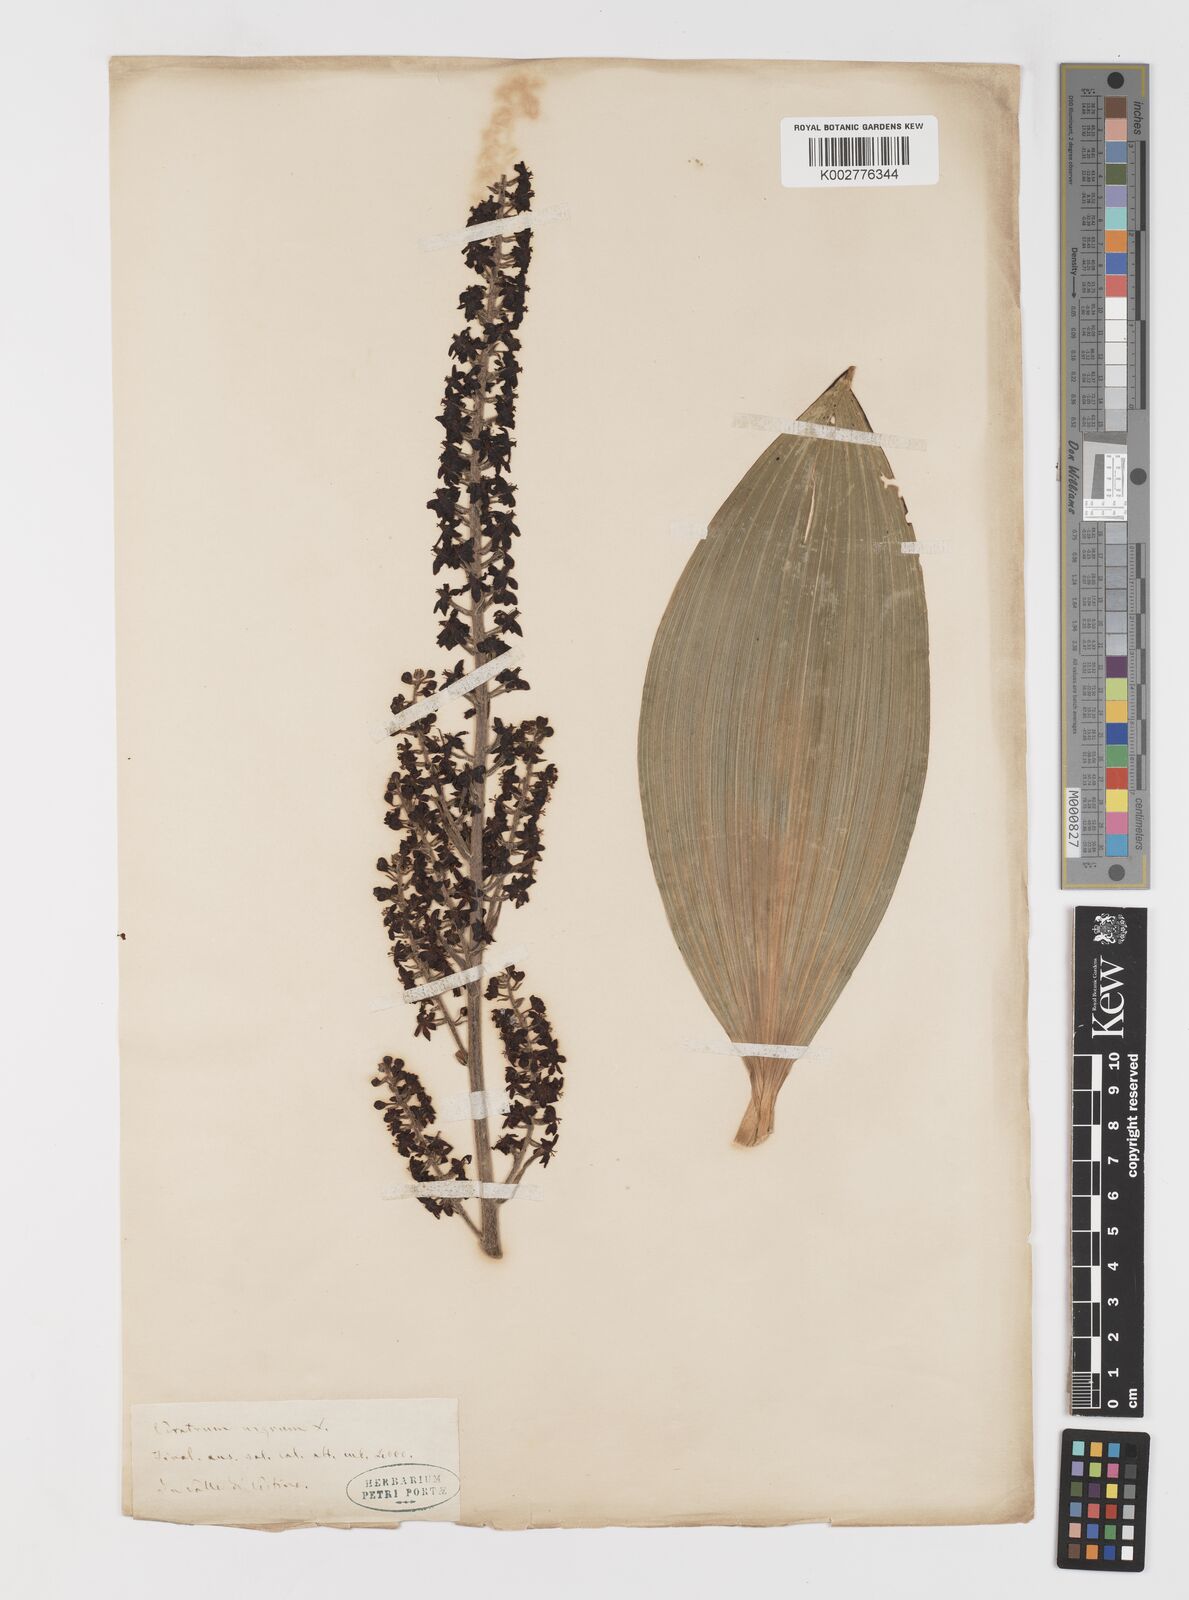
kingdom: Plantae
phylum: Tracheophyta
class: Liliopsida
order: Liliales
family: Melanthiaceae
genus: Veratrum
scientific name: Veratrum nigrum
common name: Black veratrum
